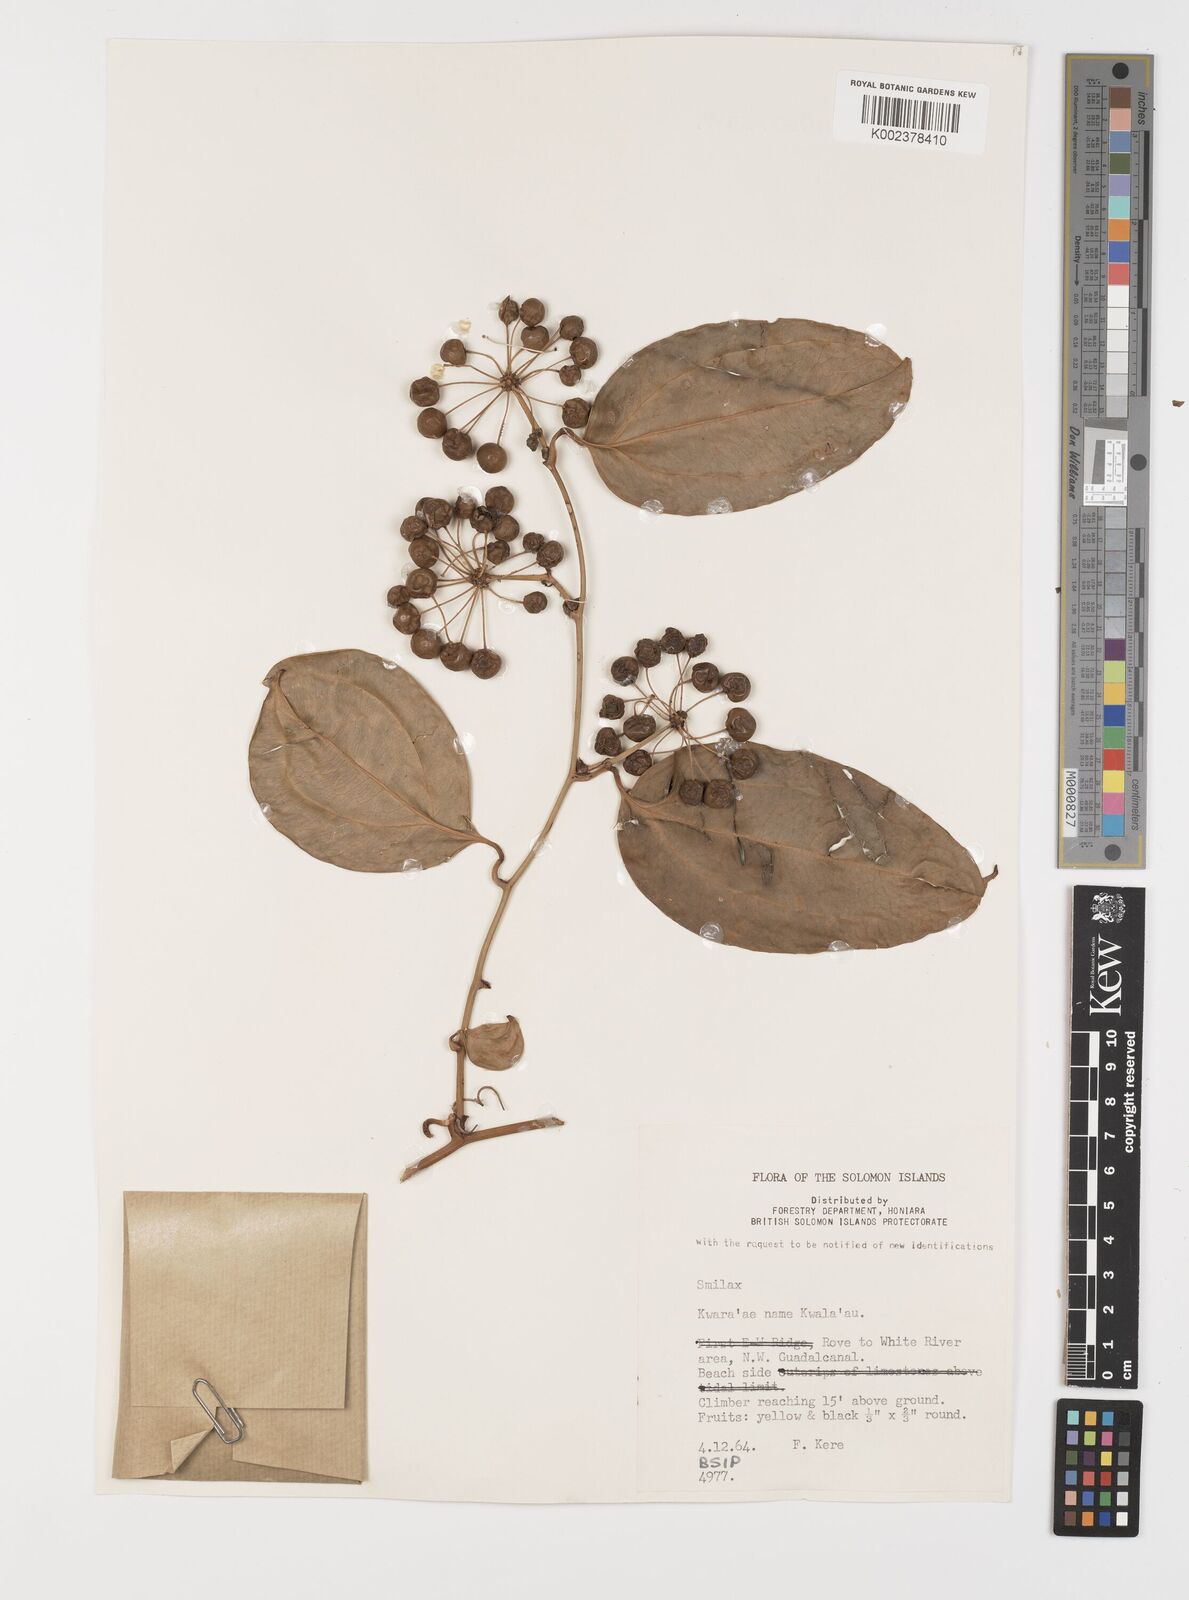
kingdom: Plantae
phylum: Tracheophyta
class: Liliopsida
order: Liliales
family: Smilacaceae
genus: Smilax
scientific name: Smilax
